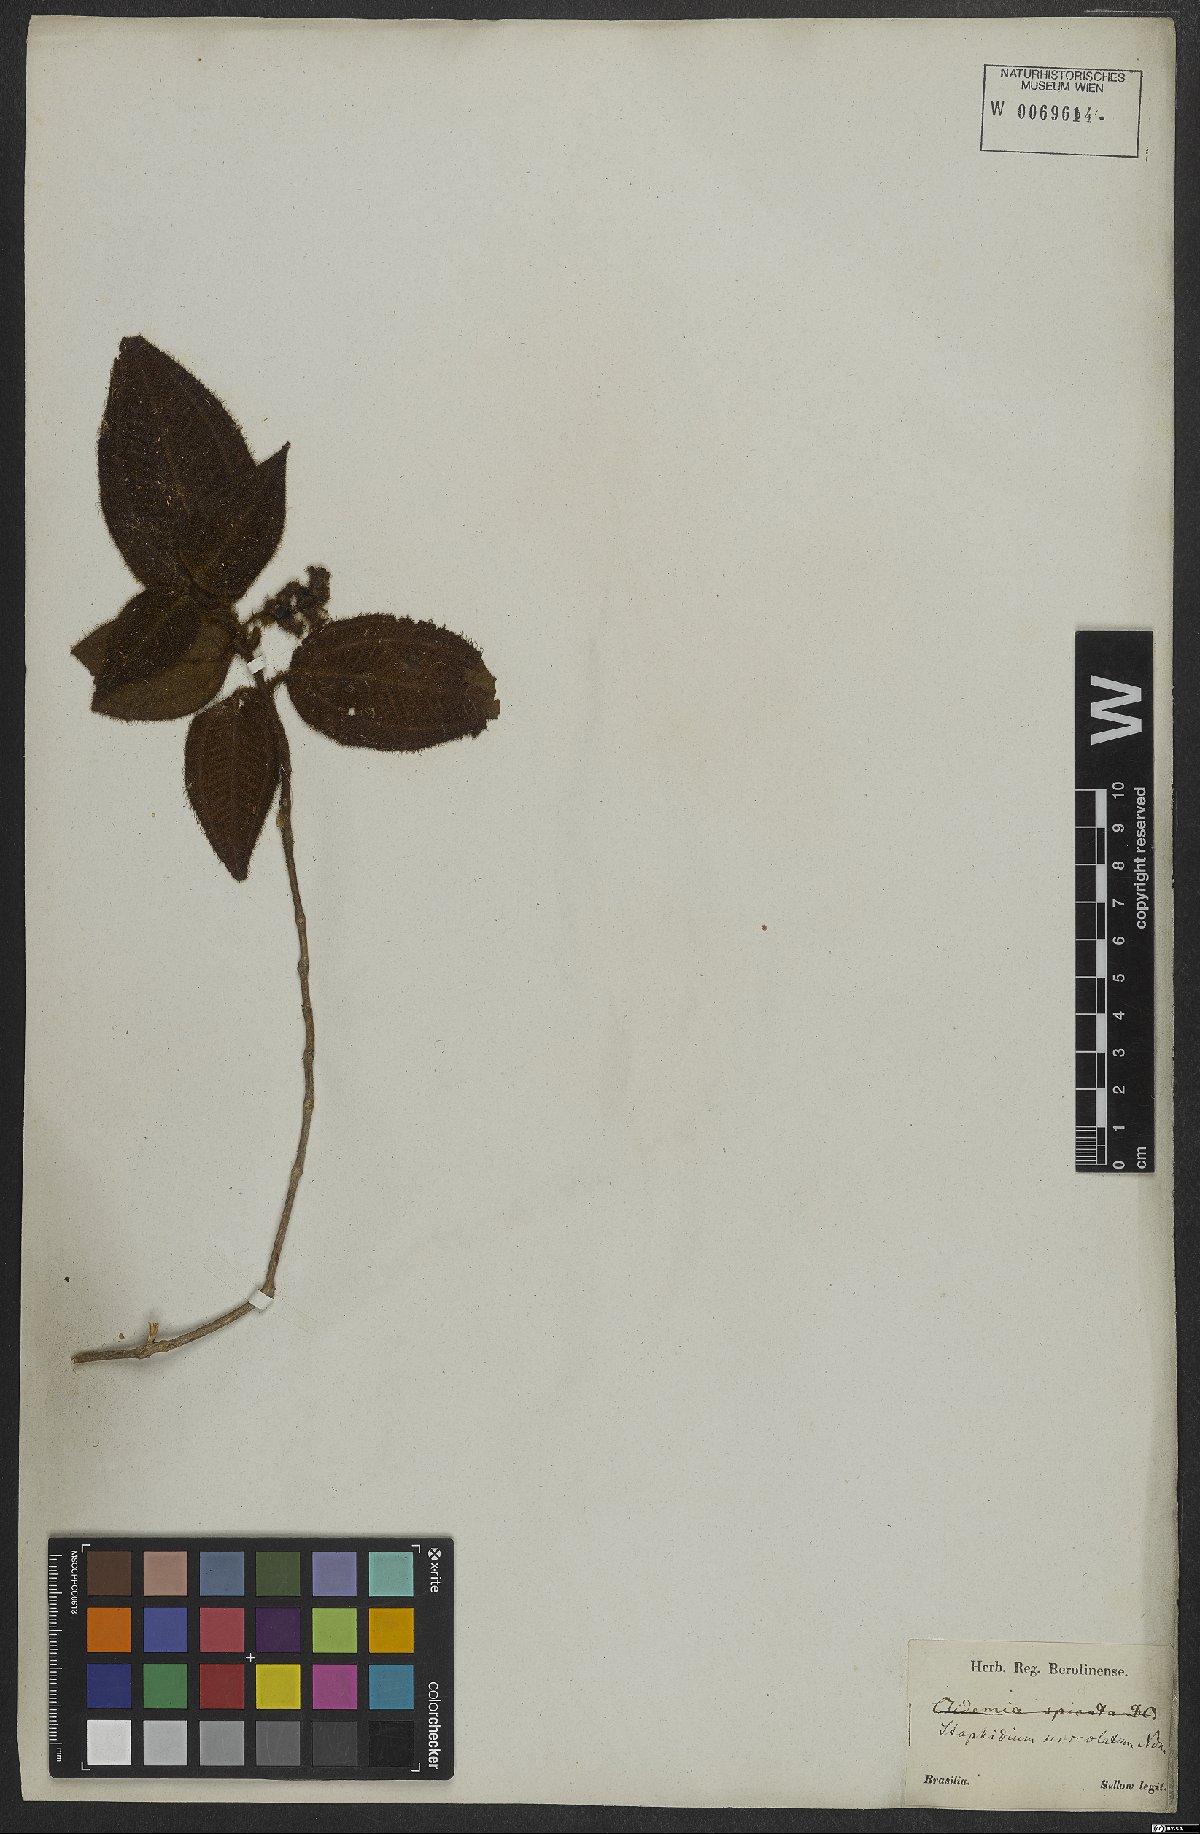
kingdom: Plantae
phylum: Tracheophyta
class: Magnoliopsida
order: Myrtales
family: Melastomataceae
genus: Miconia
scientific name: Miconia dependens
